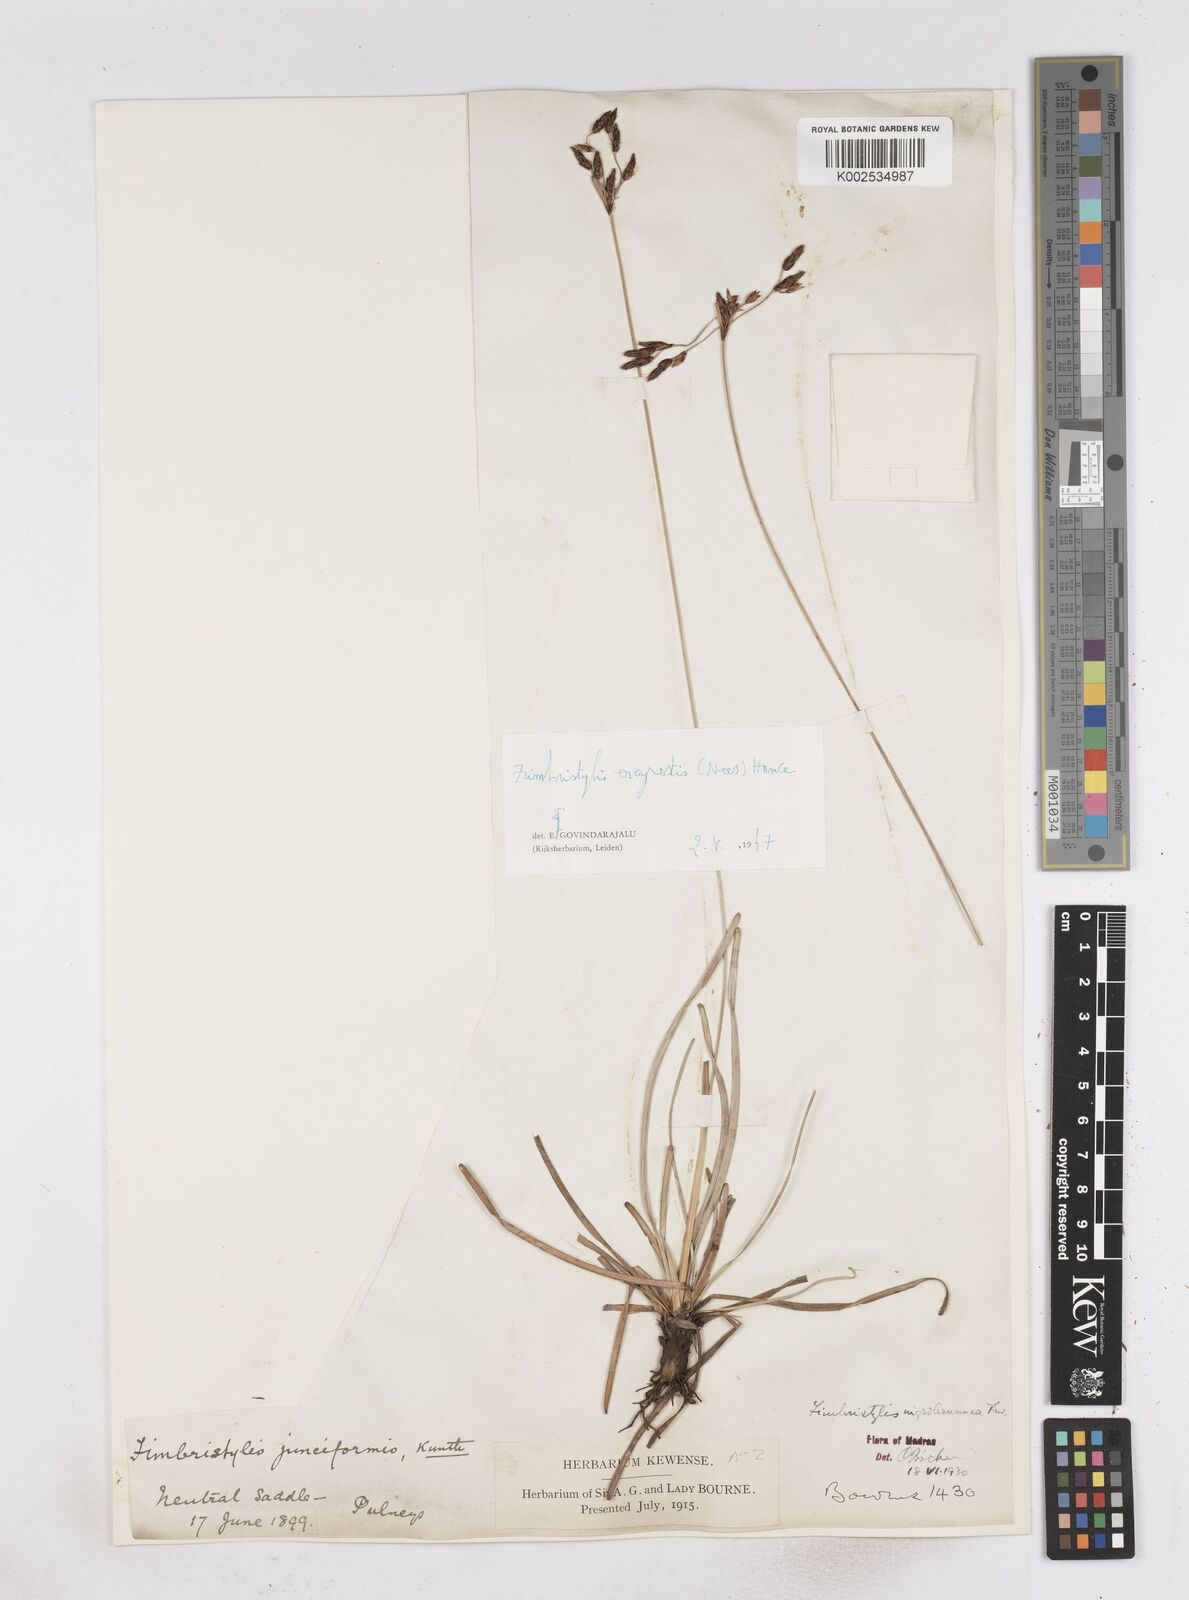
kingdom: Plantae
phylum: Tracheophyta
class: Liliopsida
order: Poales
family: Cyperaceae
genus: Fimbristylis
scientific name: Fimbristylis nigrobrunnea
